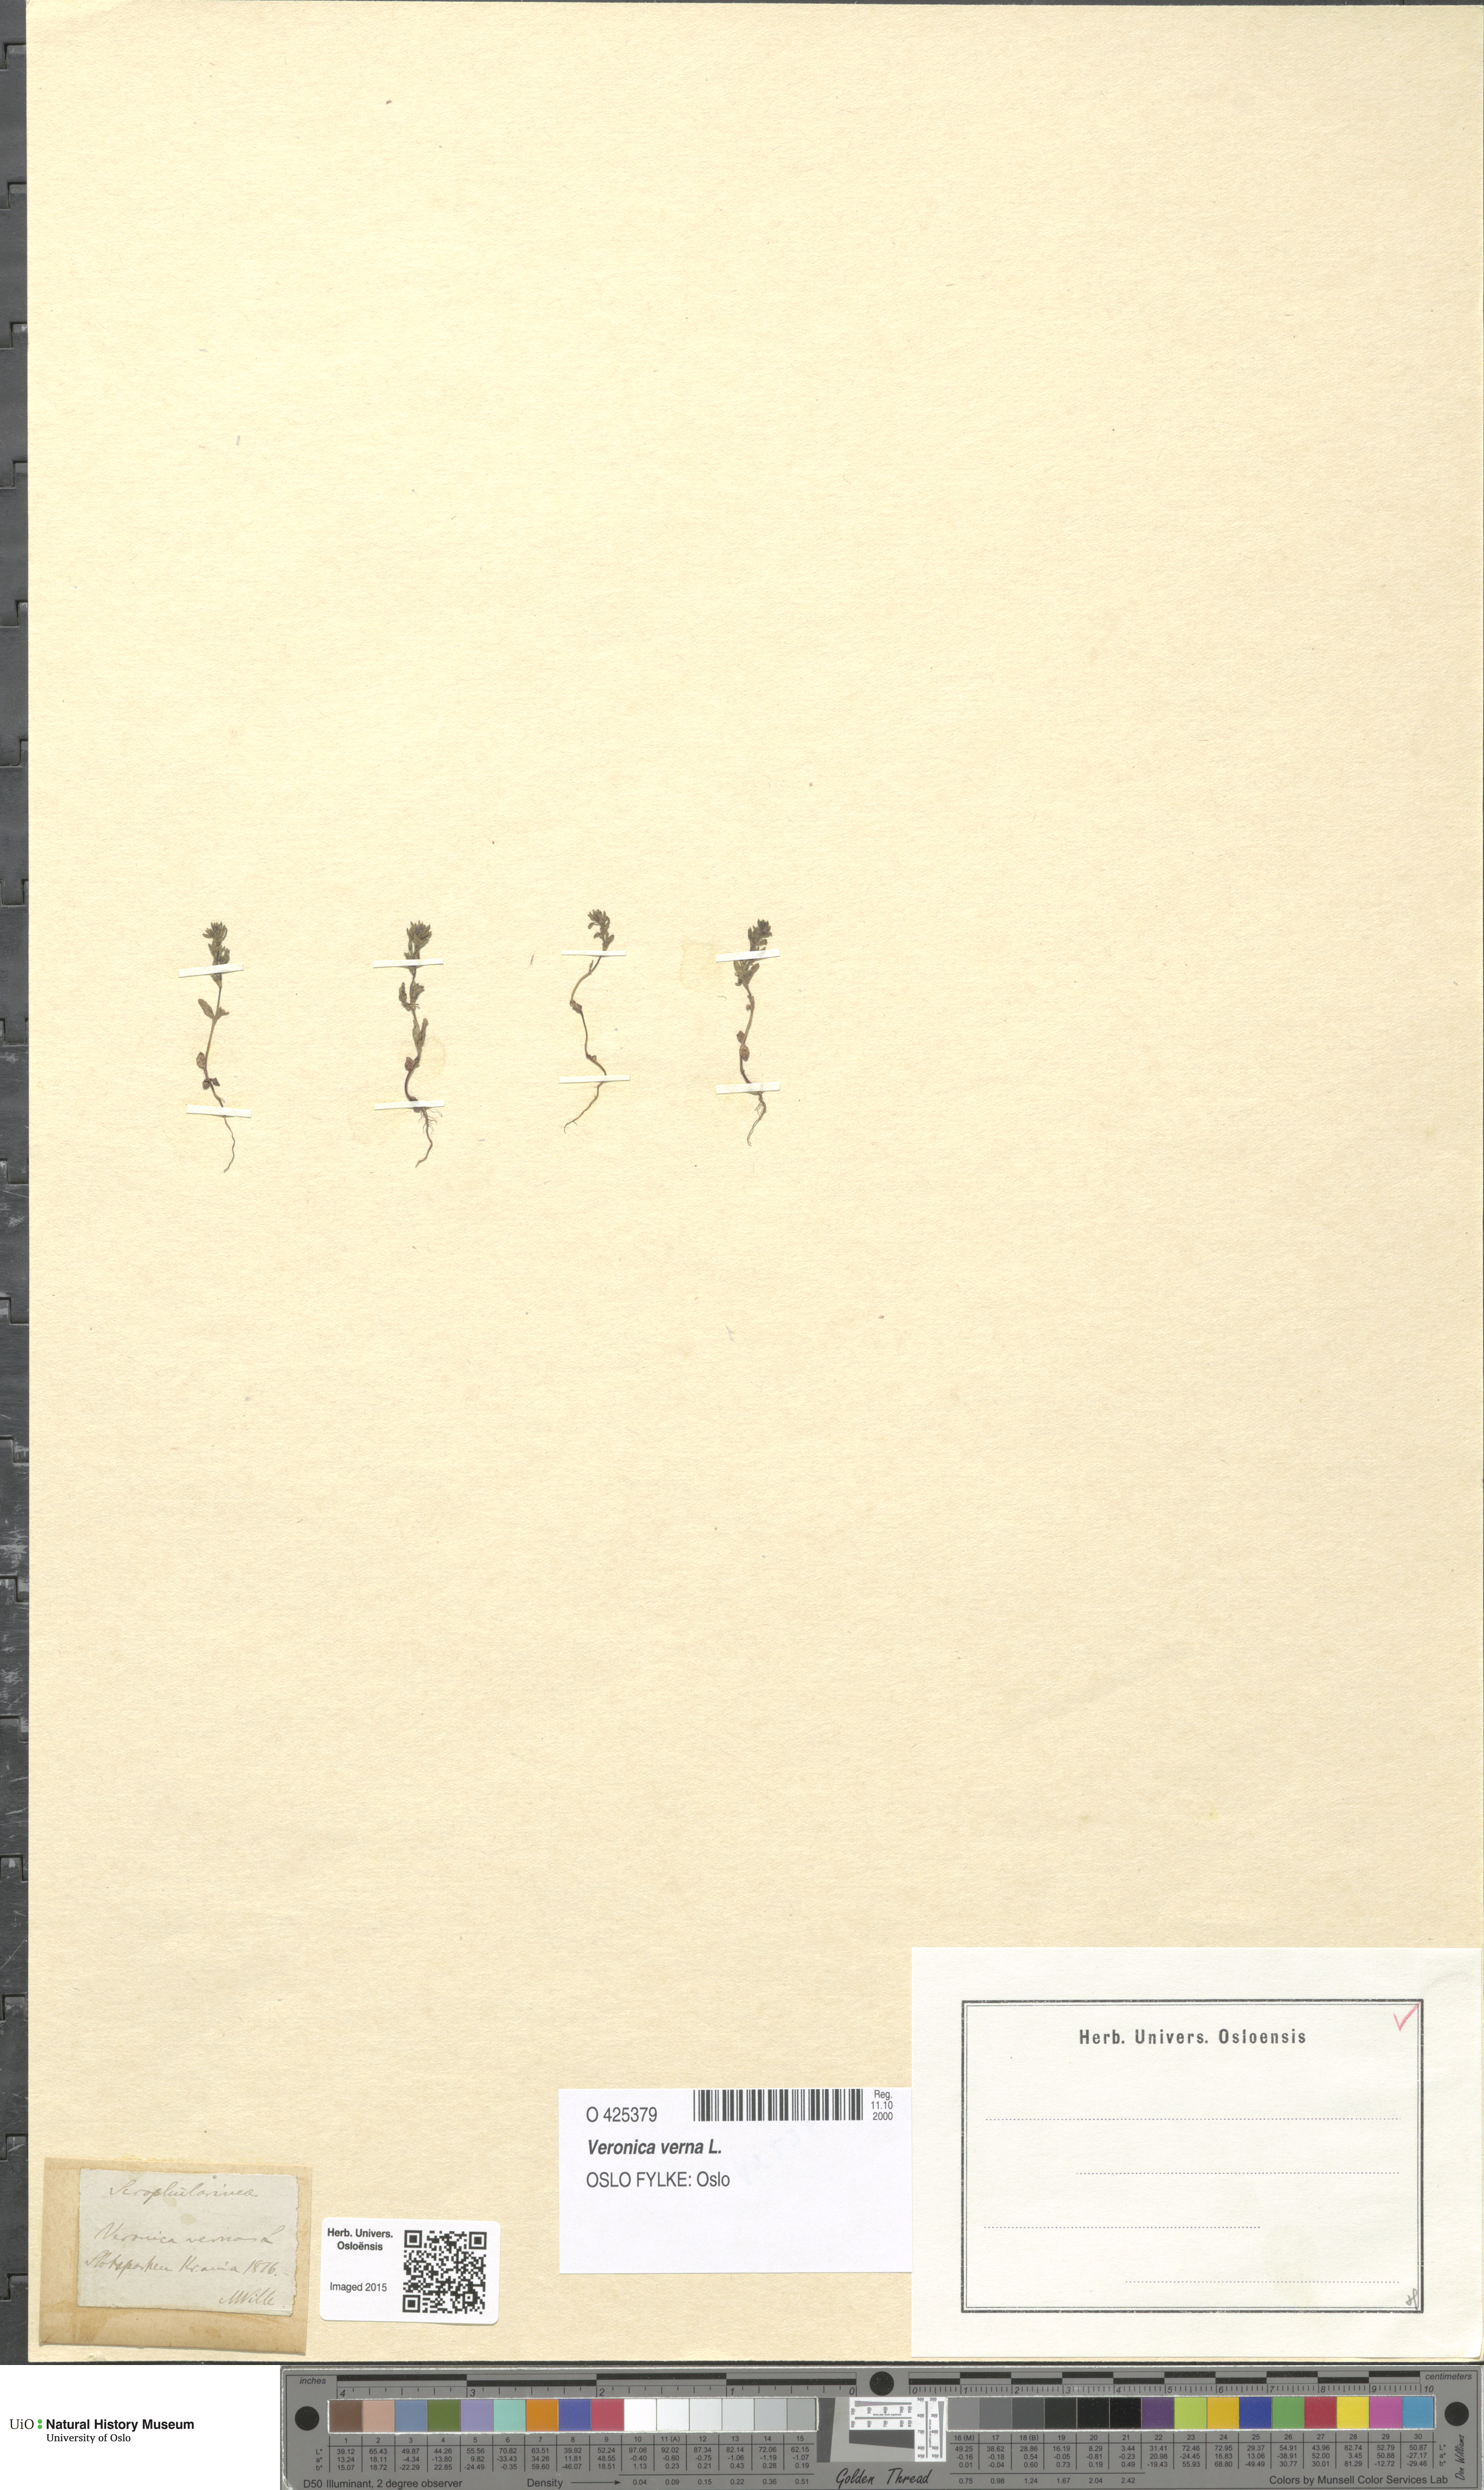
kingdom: Plantae
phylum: Tracheophyta
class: Magnoliopsida
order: Lamiales
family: Plantaginaceae
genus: Veronica
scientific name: Veronica verna
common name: Spring speedwell
